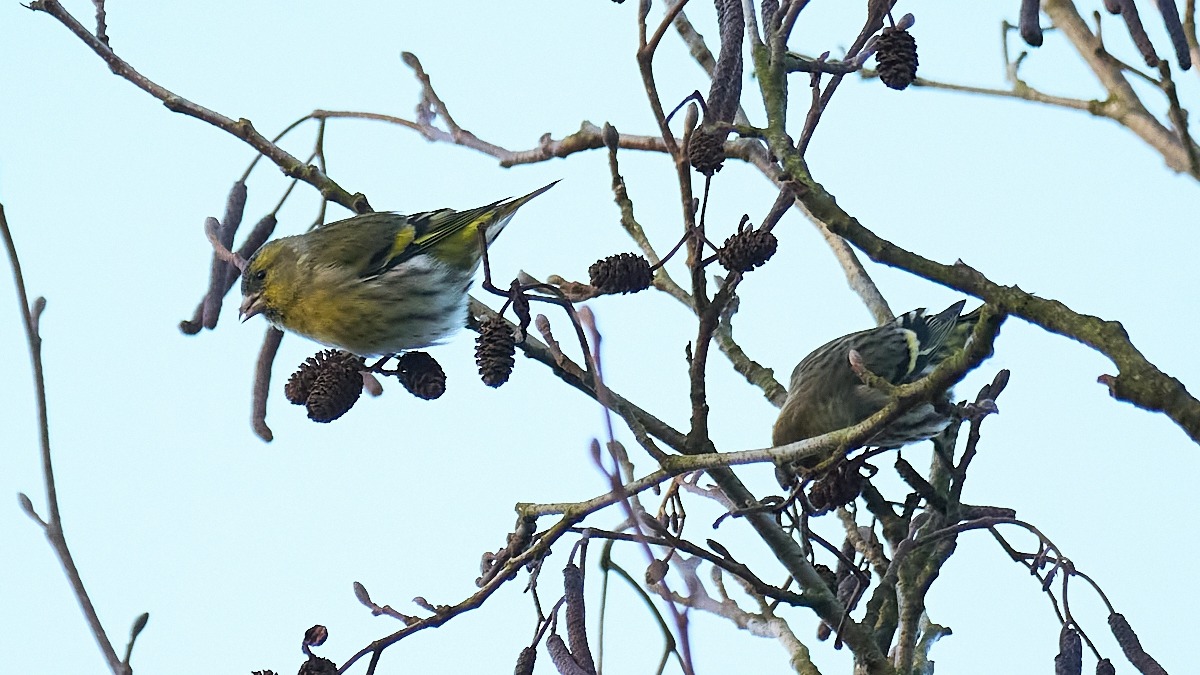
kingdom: Animalia
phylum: Chordata
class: Aves
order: Passeriformes
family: Fringillidae
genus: Spinus
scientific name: Spinus spinus
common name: Grønsisken
